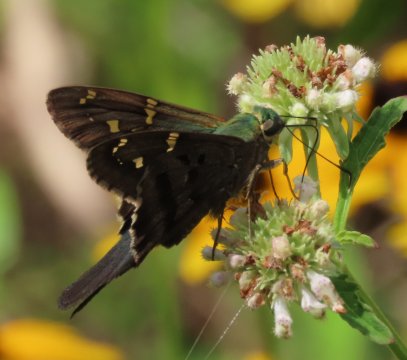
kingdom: Animalia
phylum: Arthropoda
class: Insecta
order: Lepidoptera
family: Hesperiidae
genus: Urbanus
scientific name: Urbanus proteus
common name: Long-tailed Skipper
